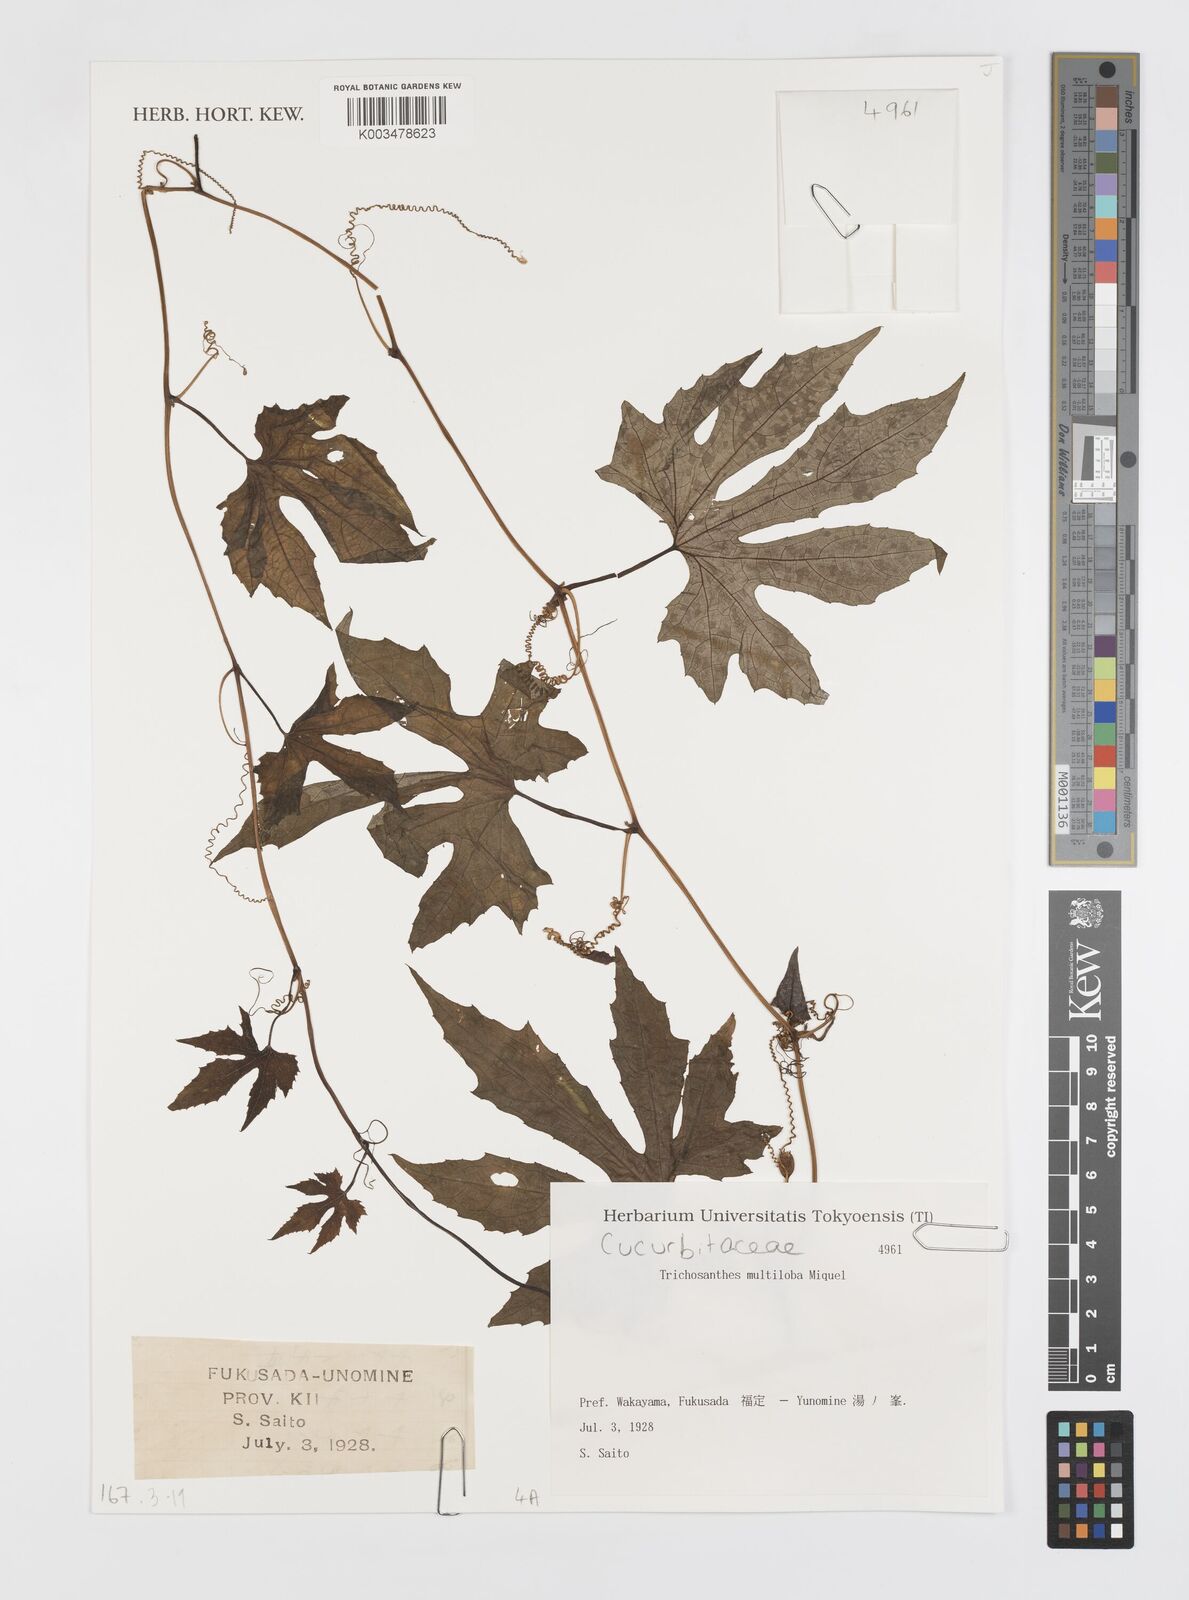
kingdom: Plantae
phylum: Tracheophyta
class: Magnoliopsida
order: Cucurbitales
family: Cucurbitaceae
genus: Trichosanthes
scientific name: Trichosanthes multiloba
